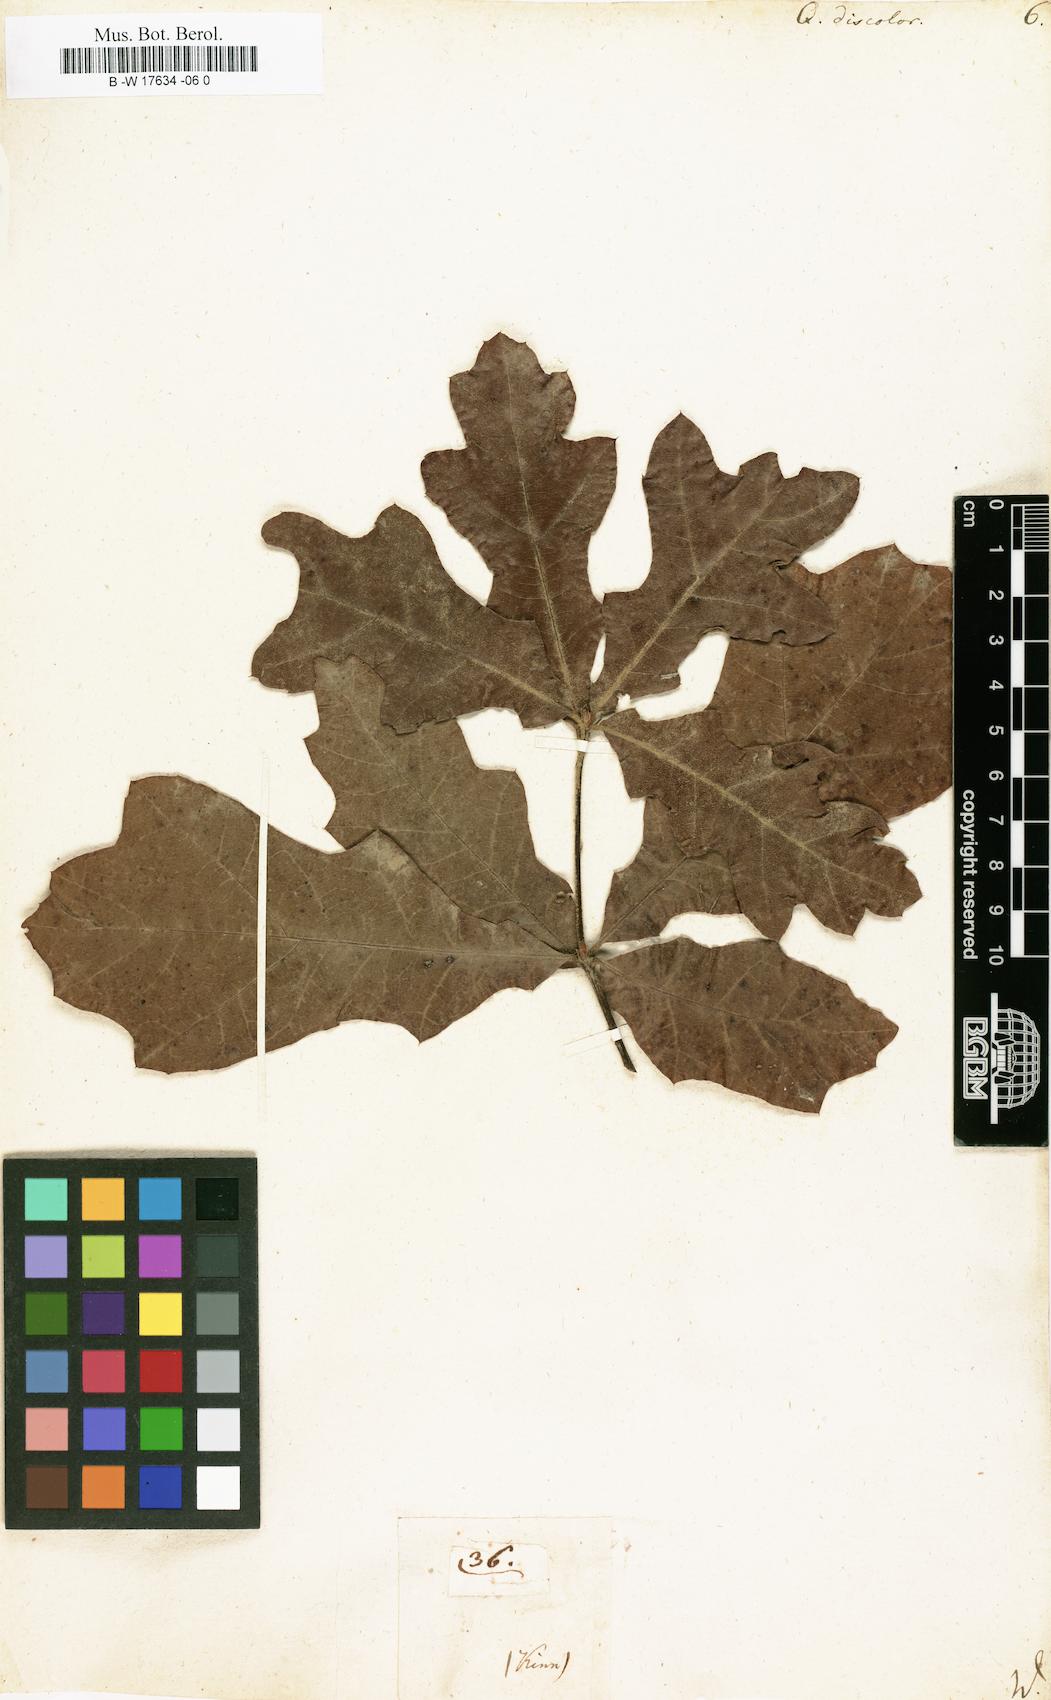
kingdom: Plantae
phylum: Tracheophyta
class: Magnoliopsida
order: Fagales
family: Fagaceae
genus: Quercus
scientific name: Quercus velutina
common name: Black oak
